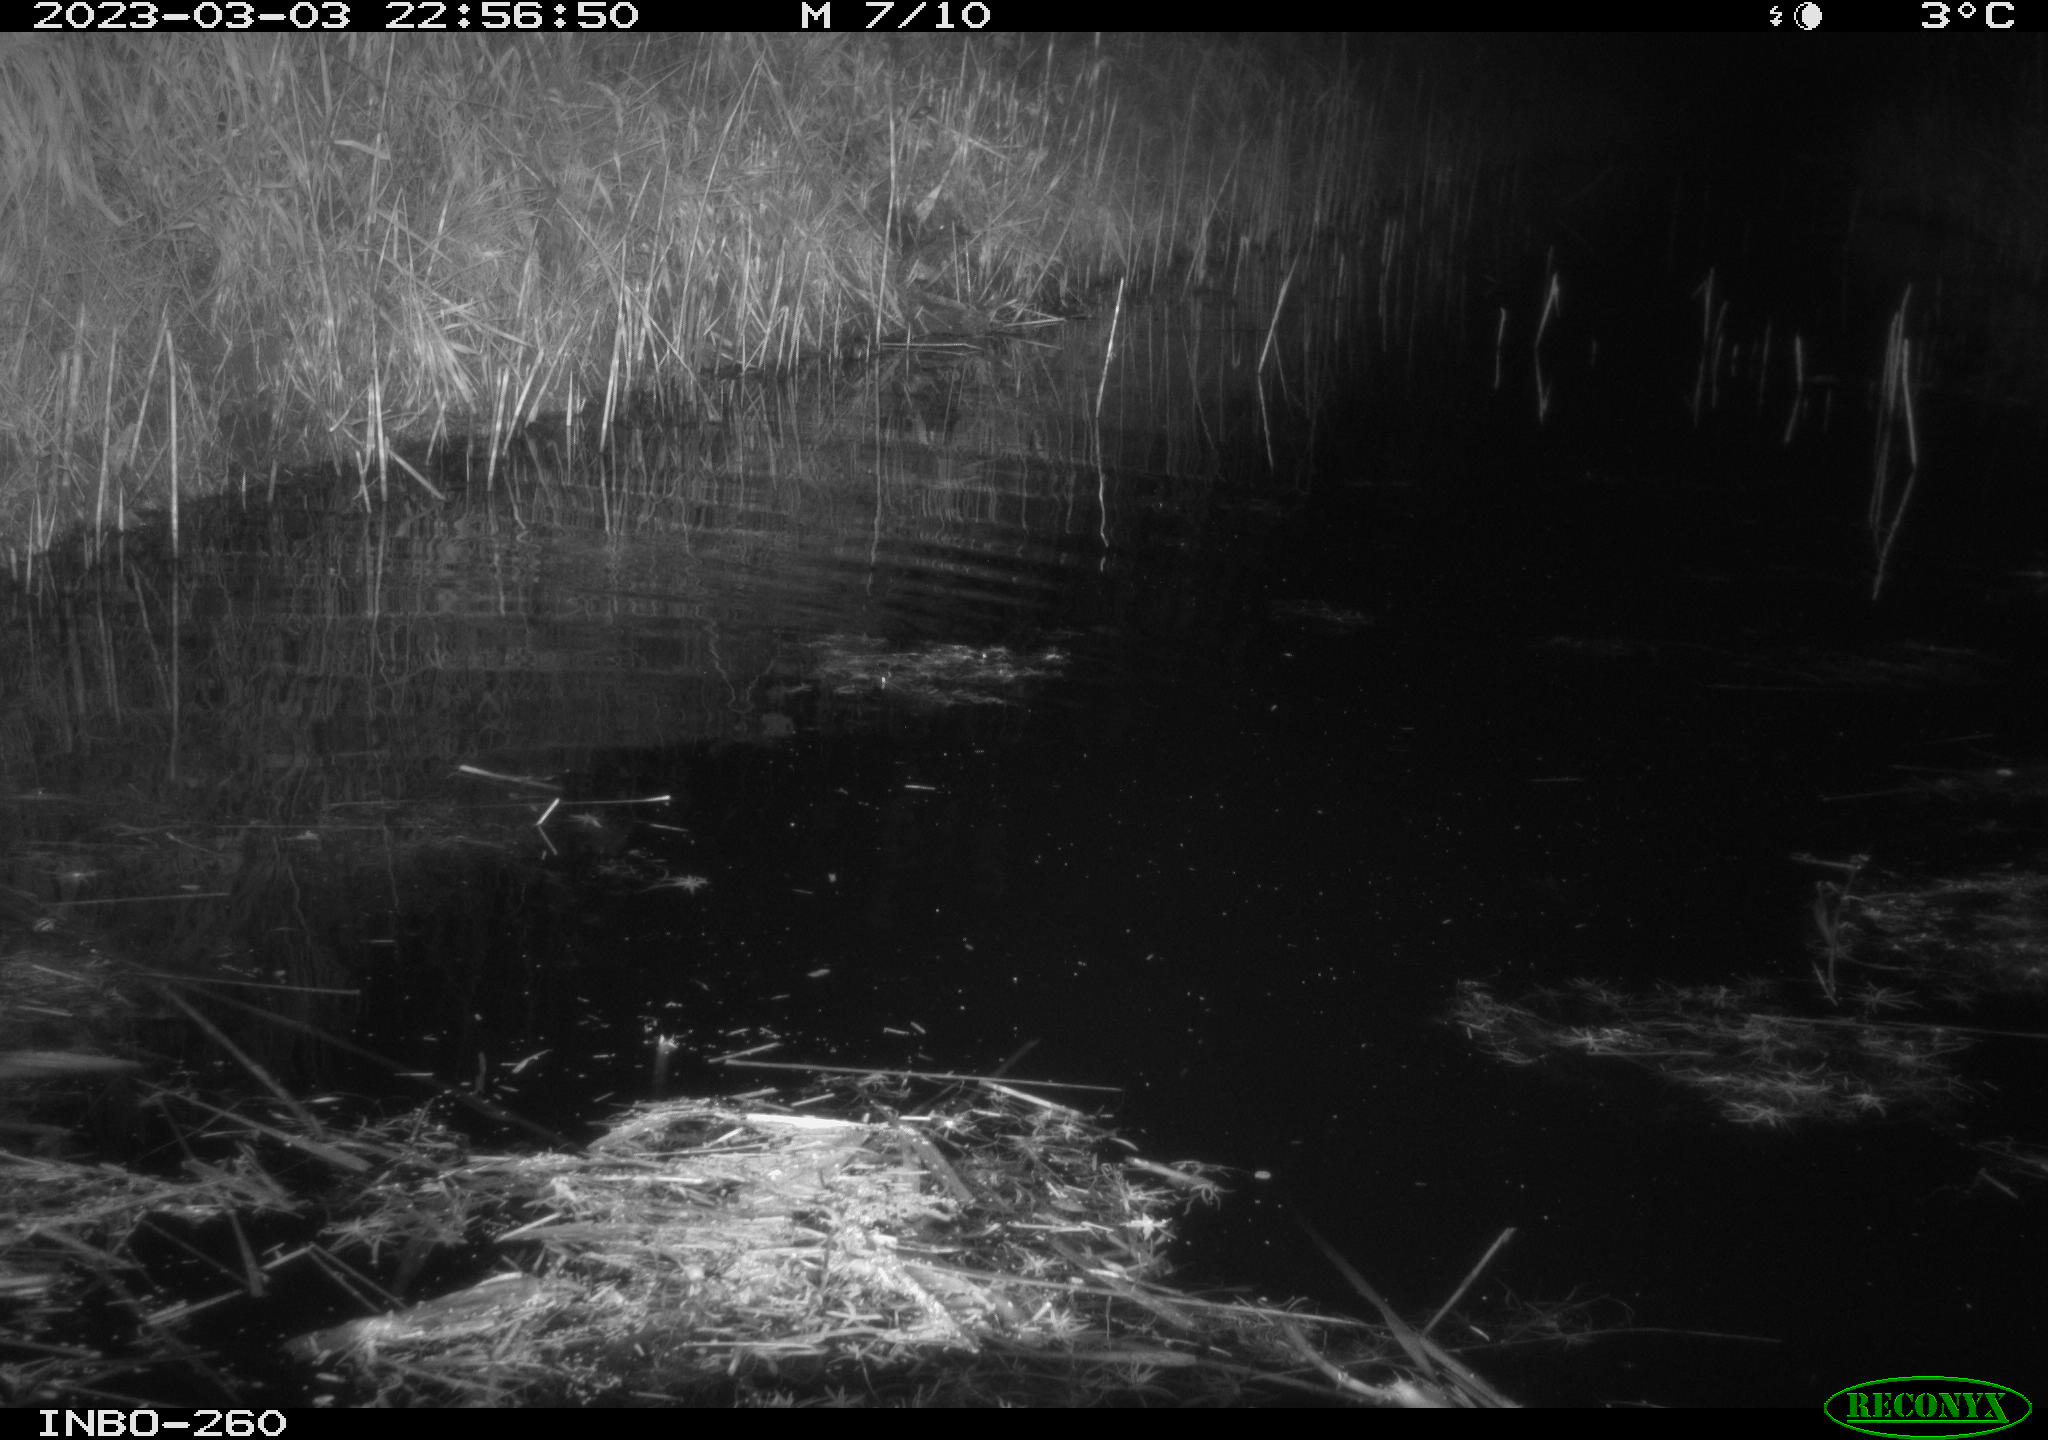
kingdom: Animalia
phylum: Chordata
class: Mammalia
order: Rodentia
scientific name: Rodentia
